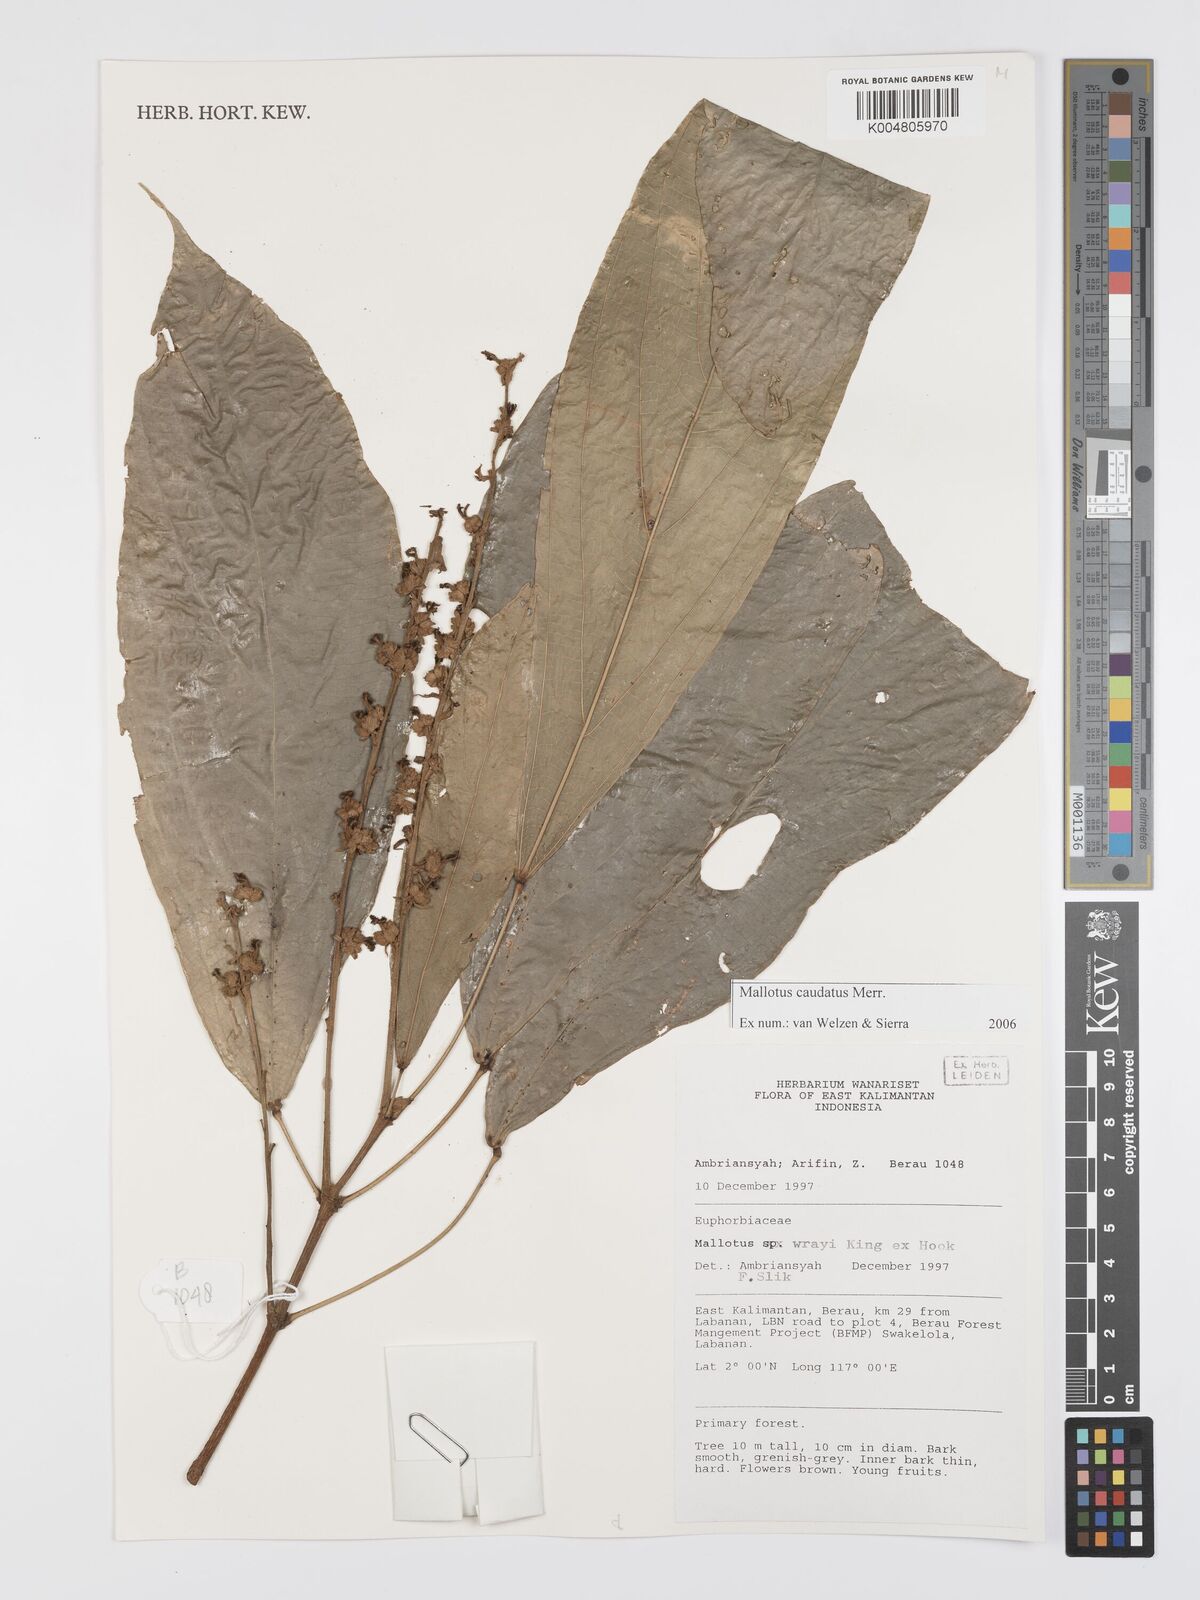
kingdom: Plantae
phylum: Tracheophyta
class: Magnoliopsida
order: Malpighiales
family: Euphorbiaceae
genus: Mallotus
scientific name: Mallotus caudatus
